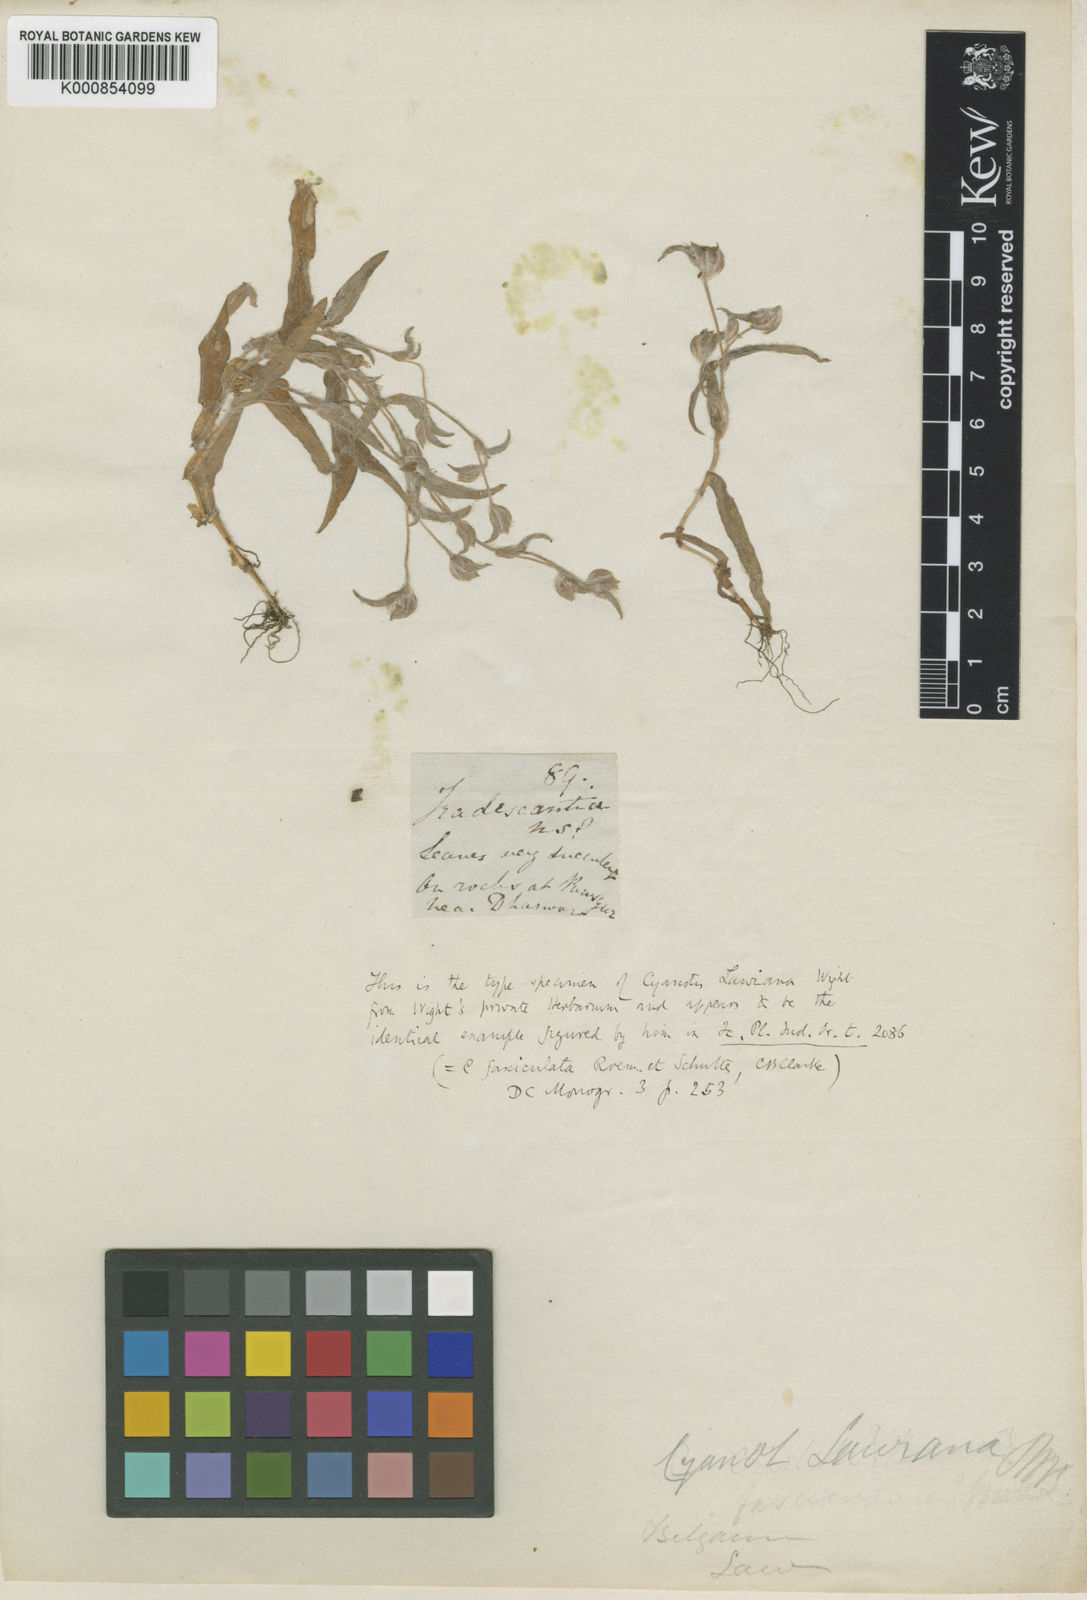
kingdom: Plantae
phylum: Tracheophyta
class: Liliopsida
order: Commelinales
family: Commelinaceae
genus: Cyanotis
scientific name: Cyanotis fasciculata
